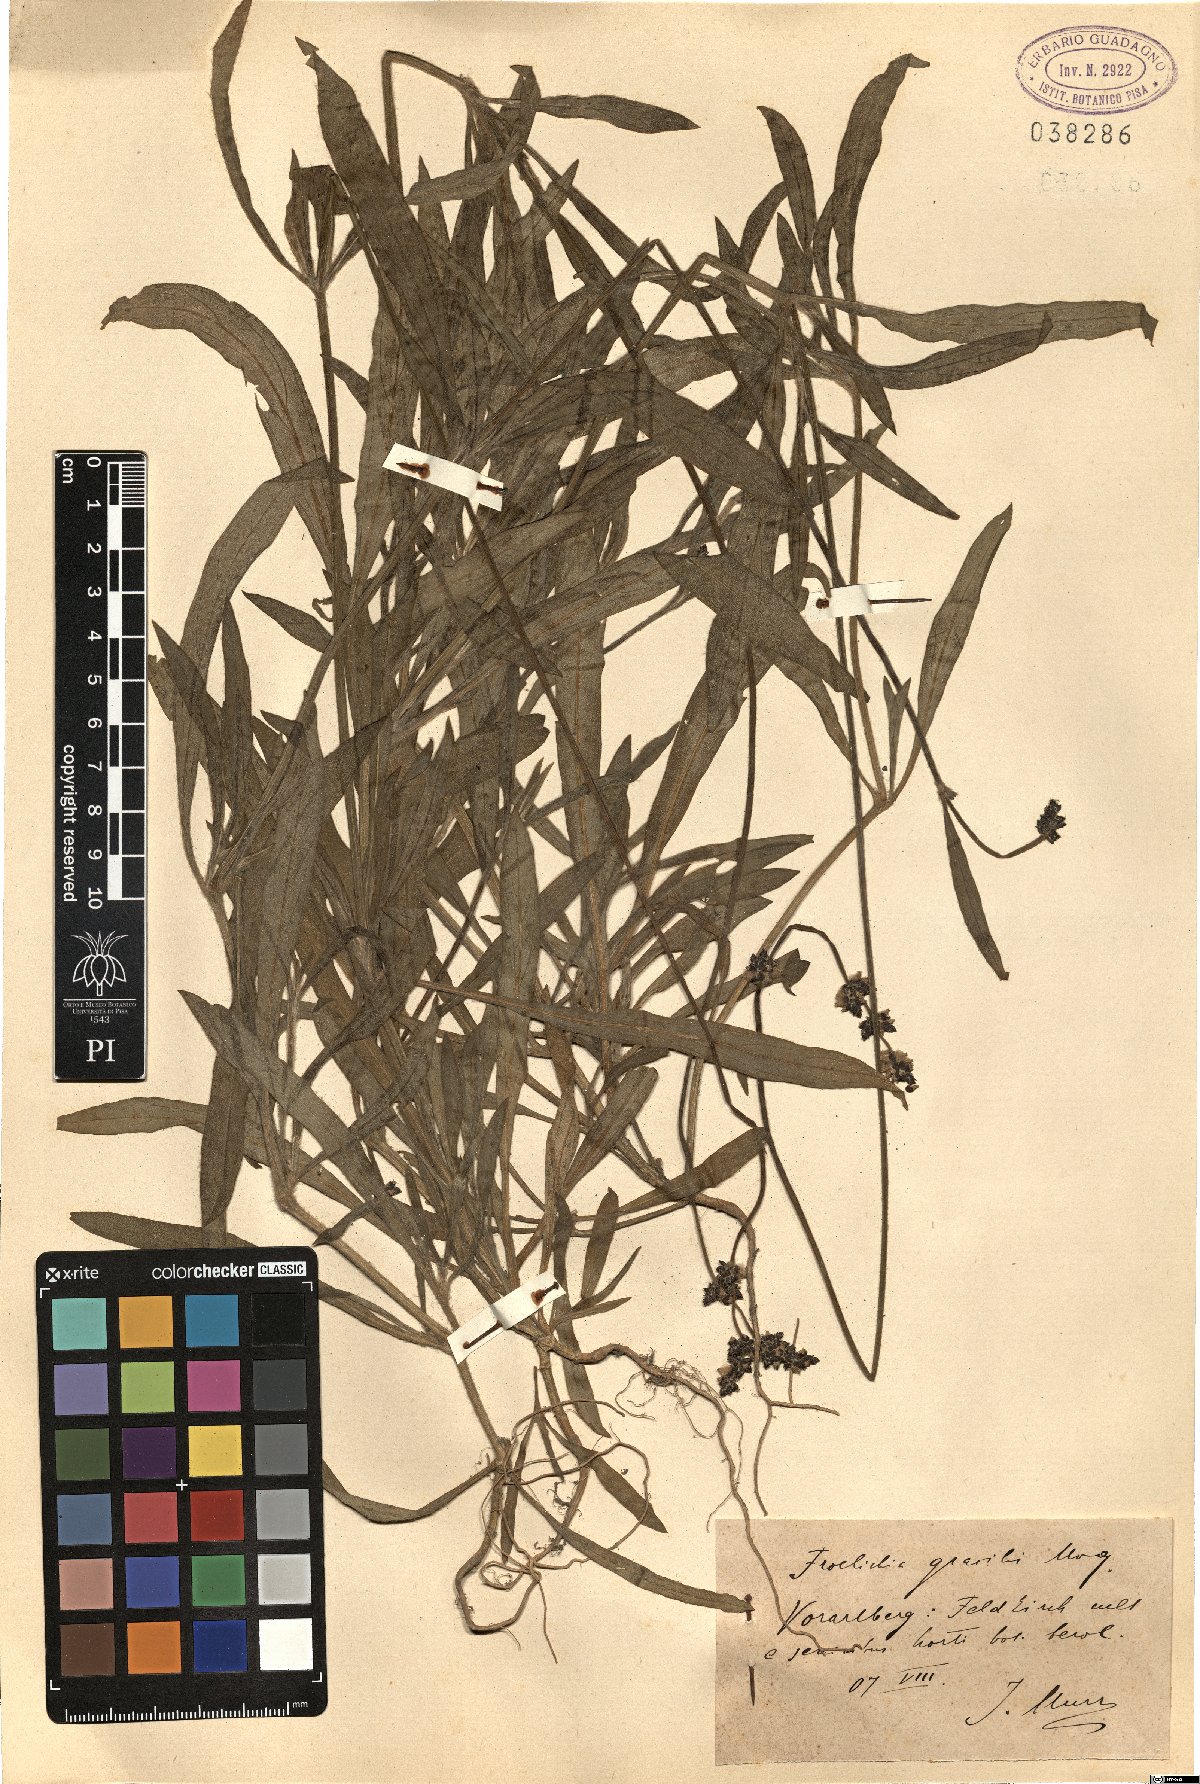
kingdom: Plantae
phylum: Tracheophyta
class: Magnoliopsida
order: Caryophyllales
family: Amaranthaceae
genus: Froelichia
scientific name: Froelichia gracilis
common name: Slender cottonweed
